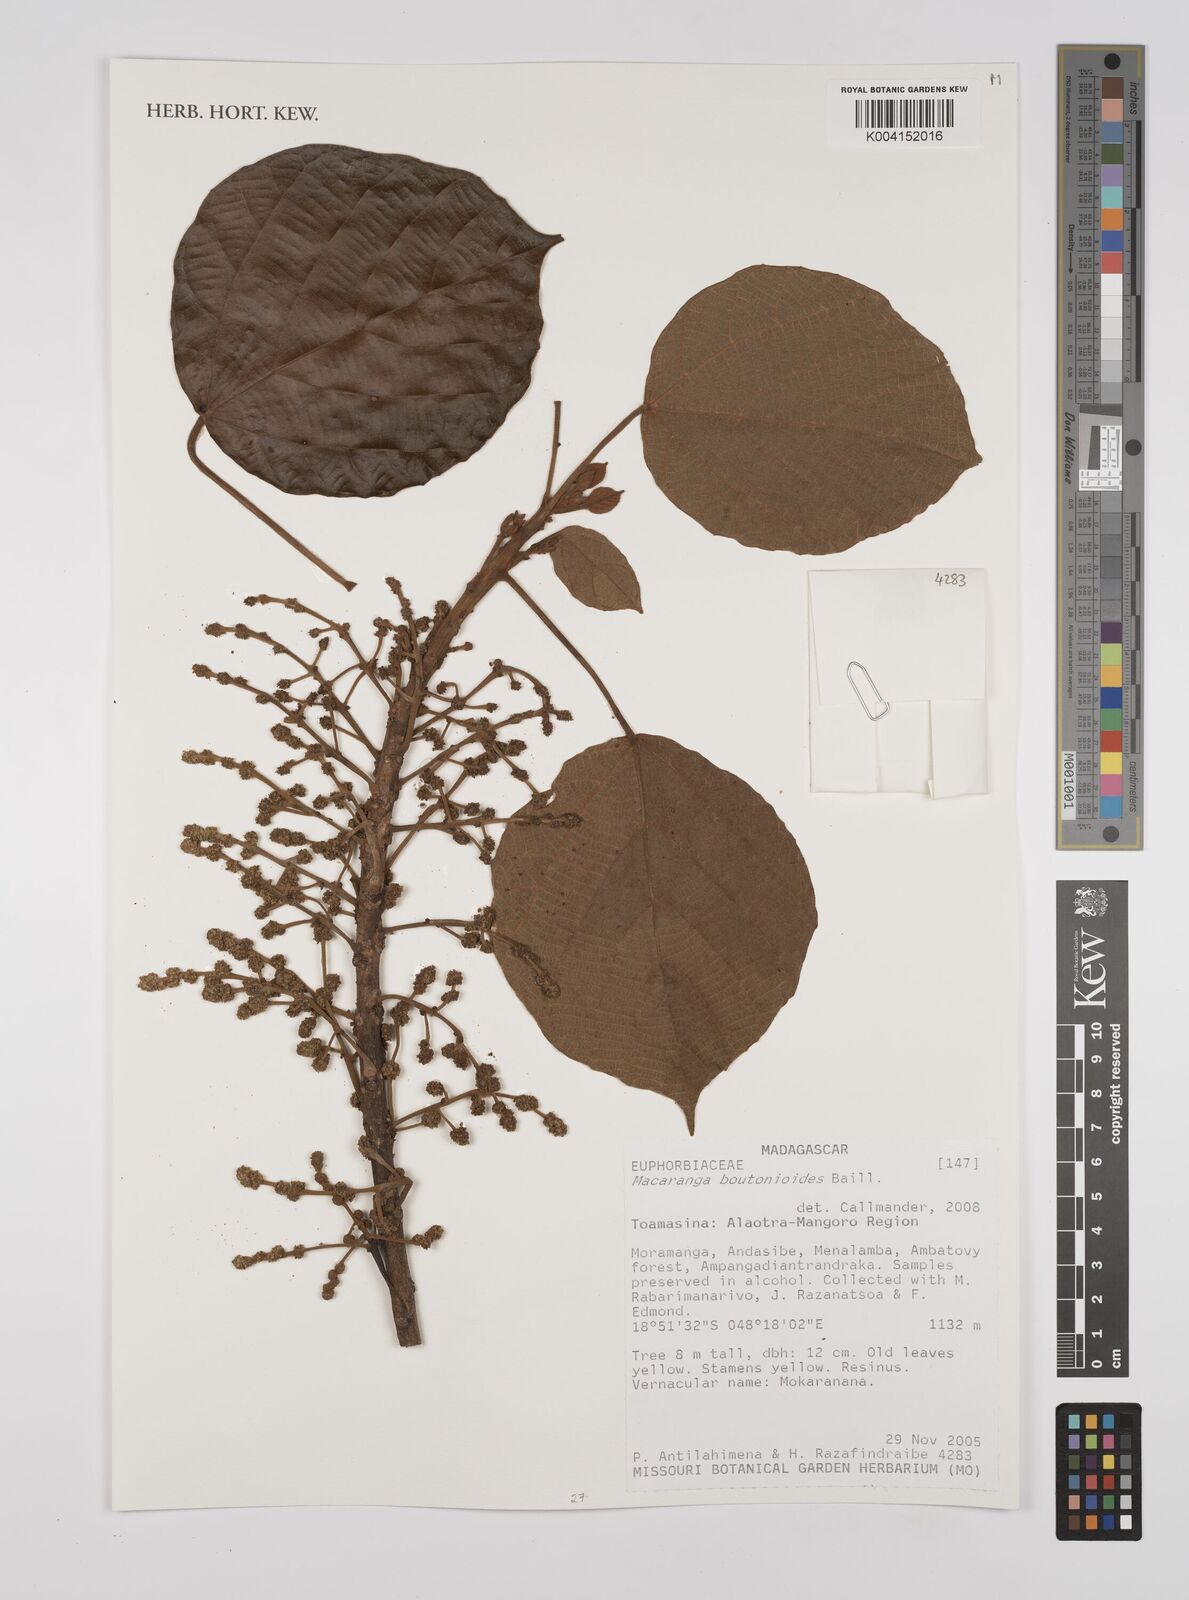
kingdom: Plantae
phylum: Tracheophyta
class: Magnoliopsida
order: Malpighiales
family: Euphorbiaceae
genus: Macaranga
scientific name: Macaranga boutonioides
